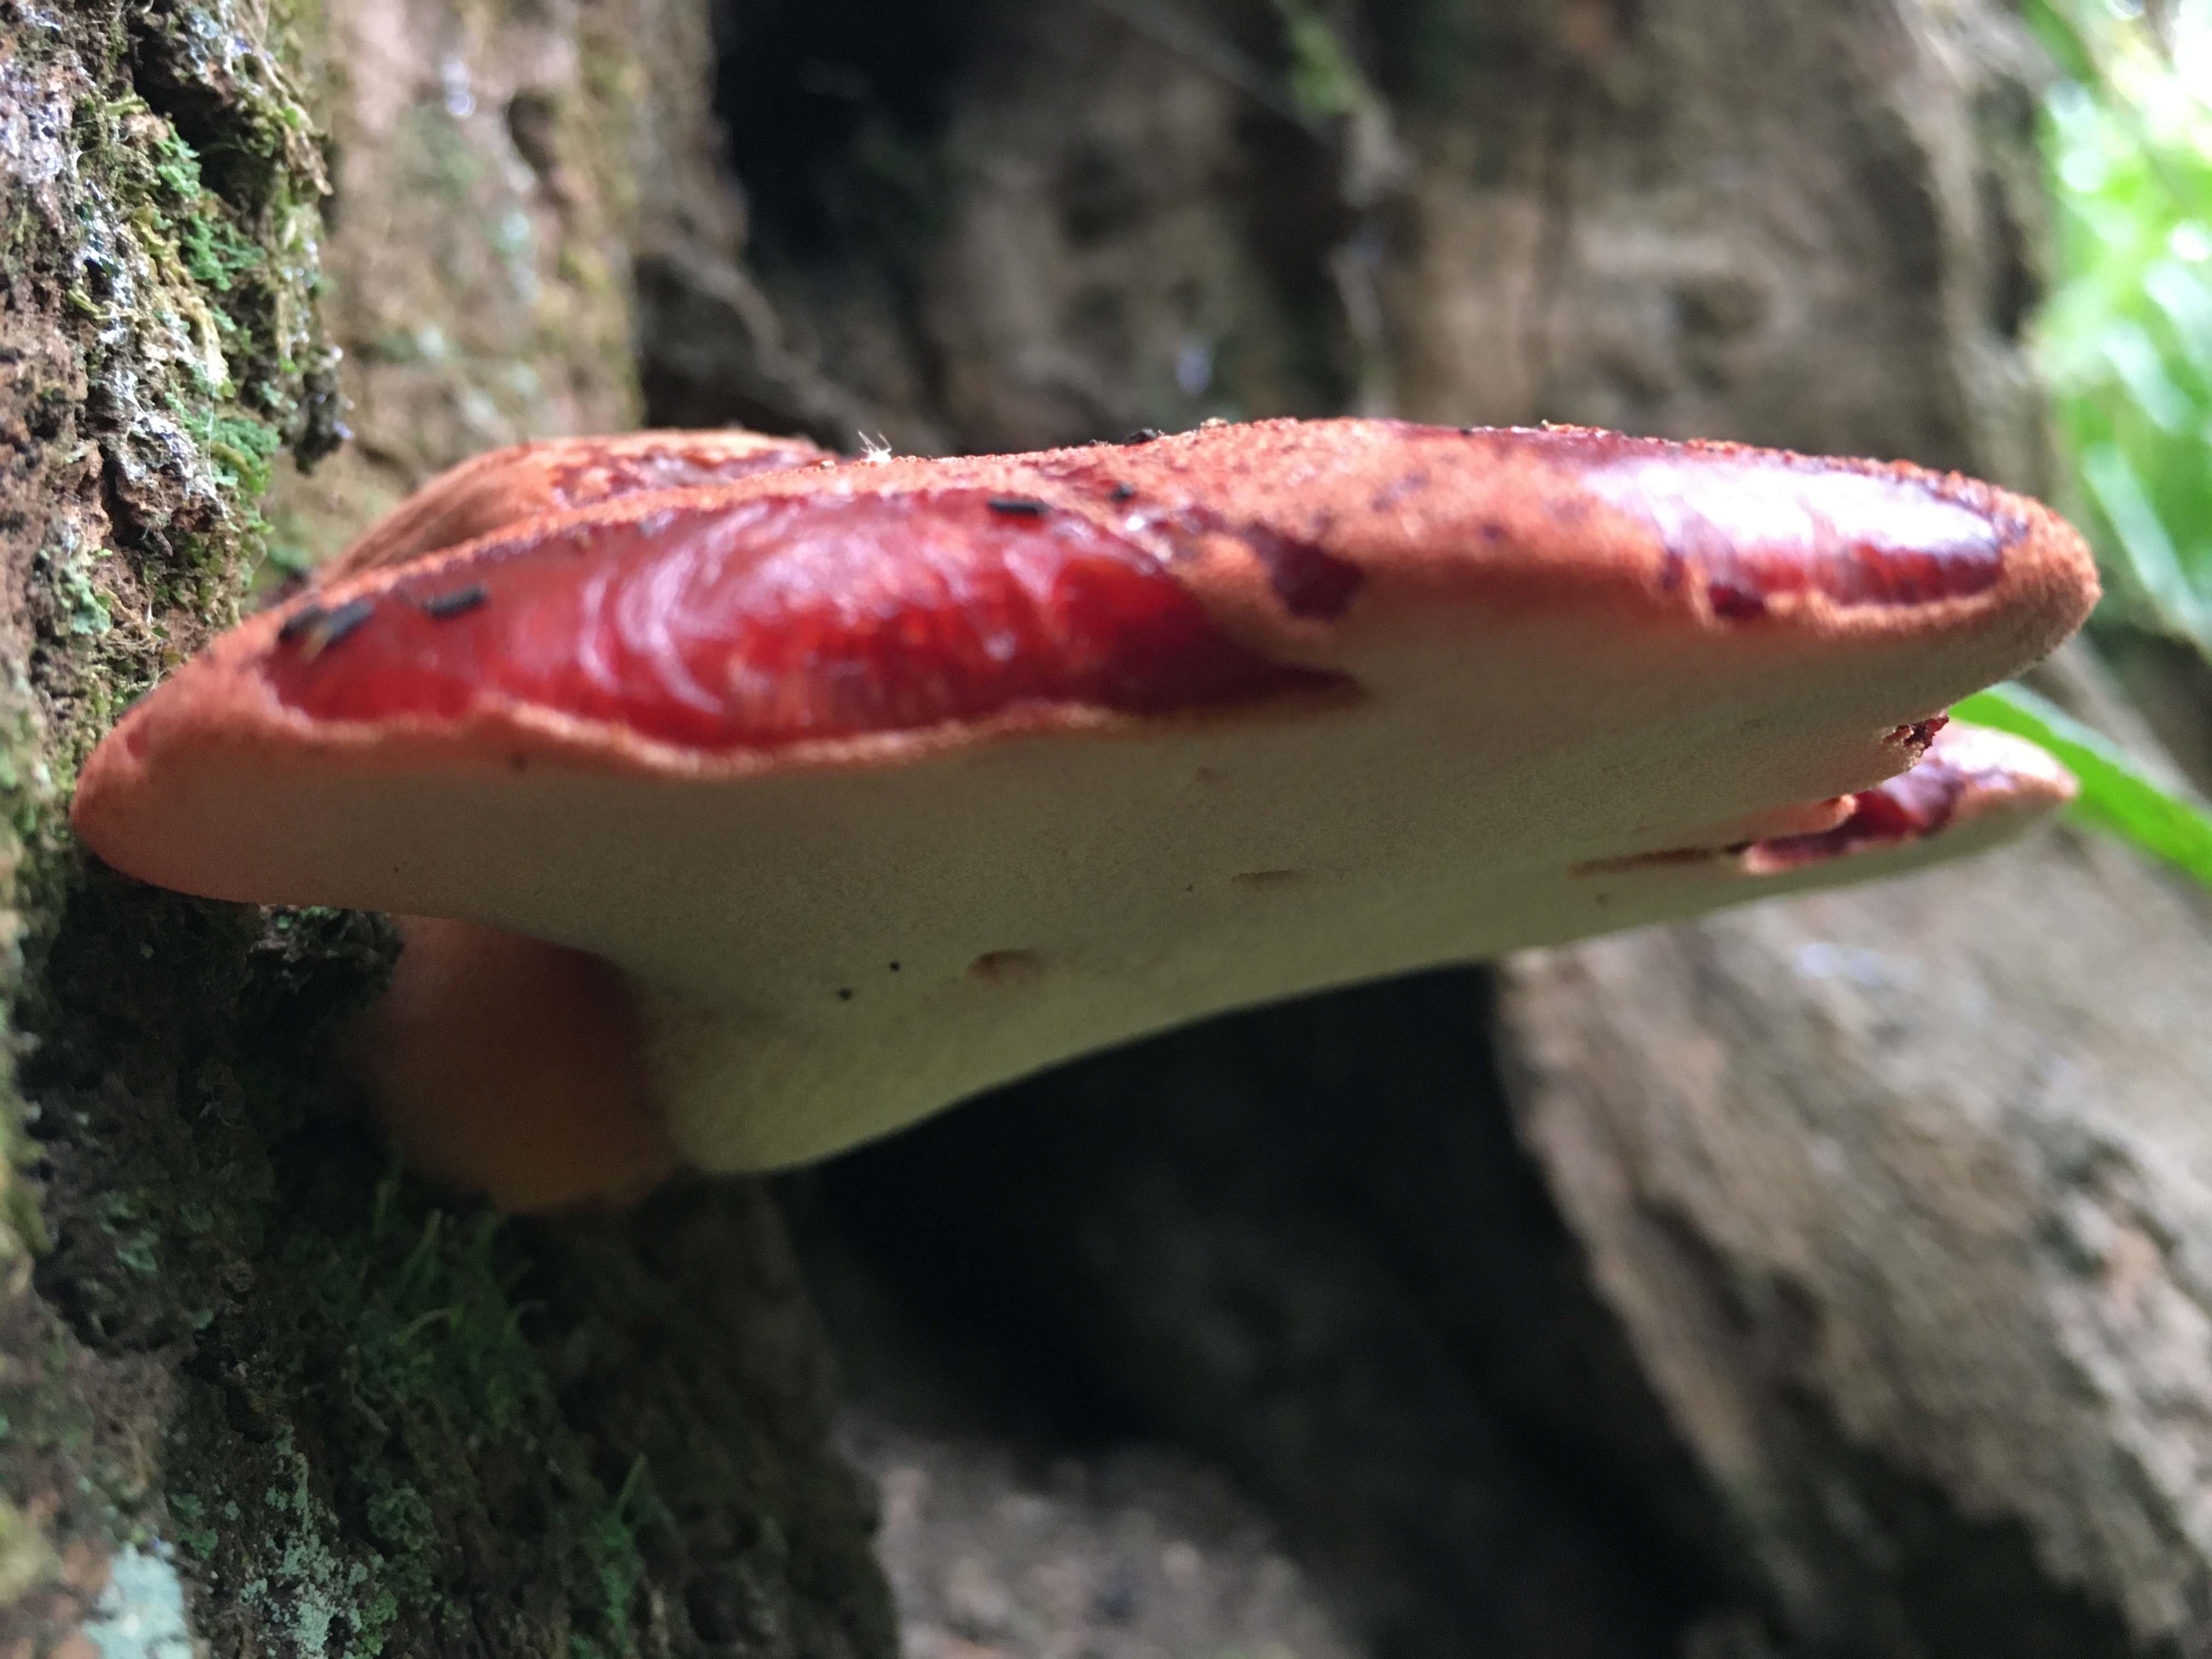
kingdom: Fungi
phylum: Basidiomycota
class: Agaricomycetes
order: Agaricales
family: Fistulinaceae
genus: Fistulina
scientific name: Fistulina hepatica
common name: oksetunge
